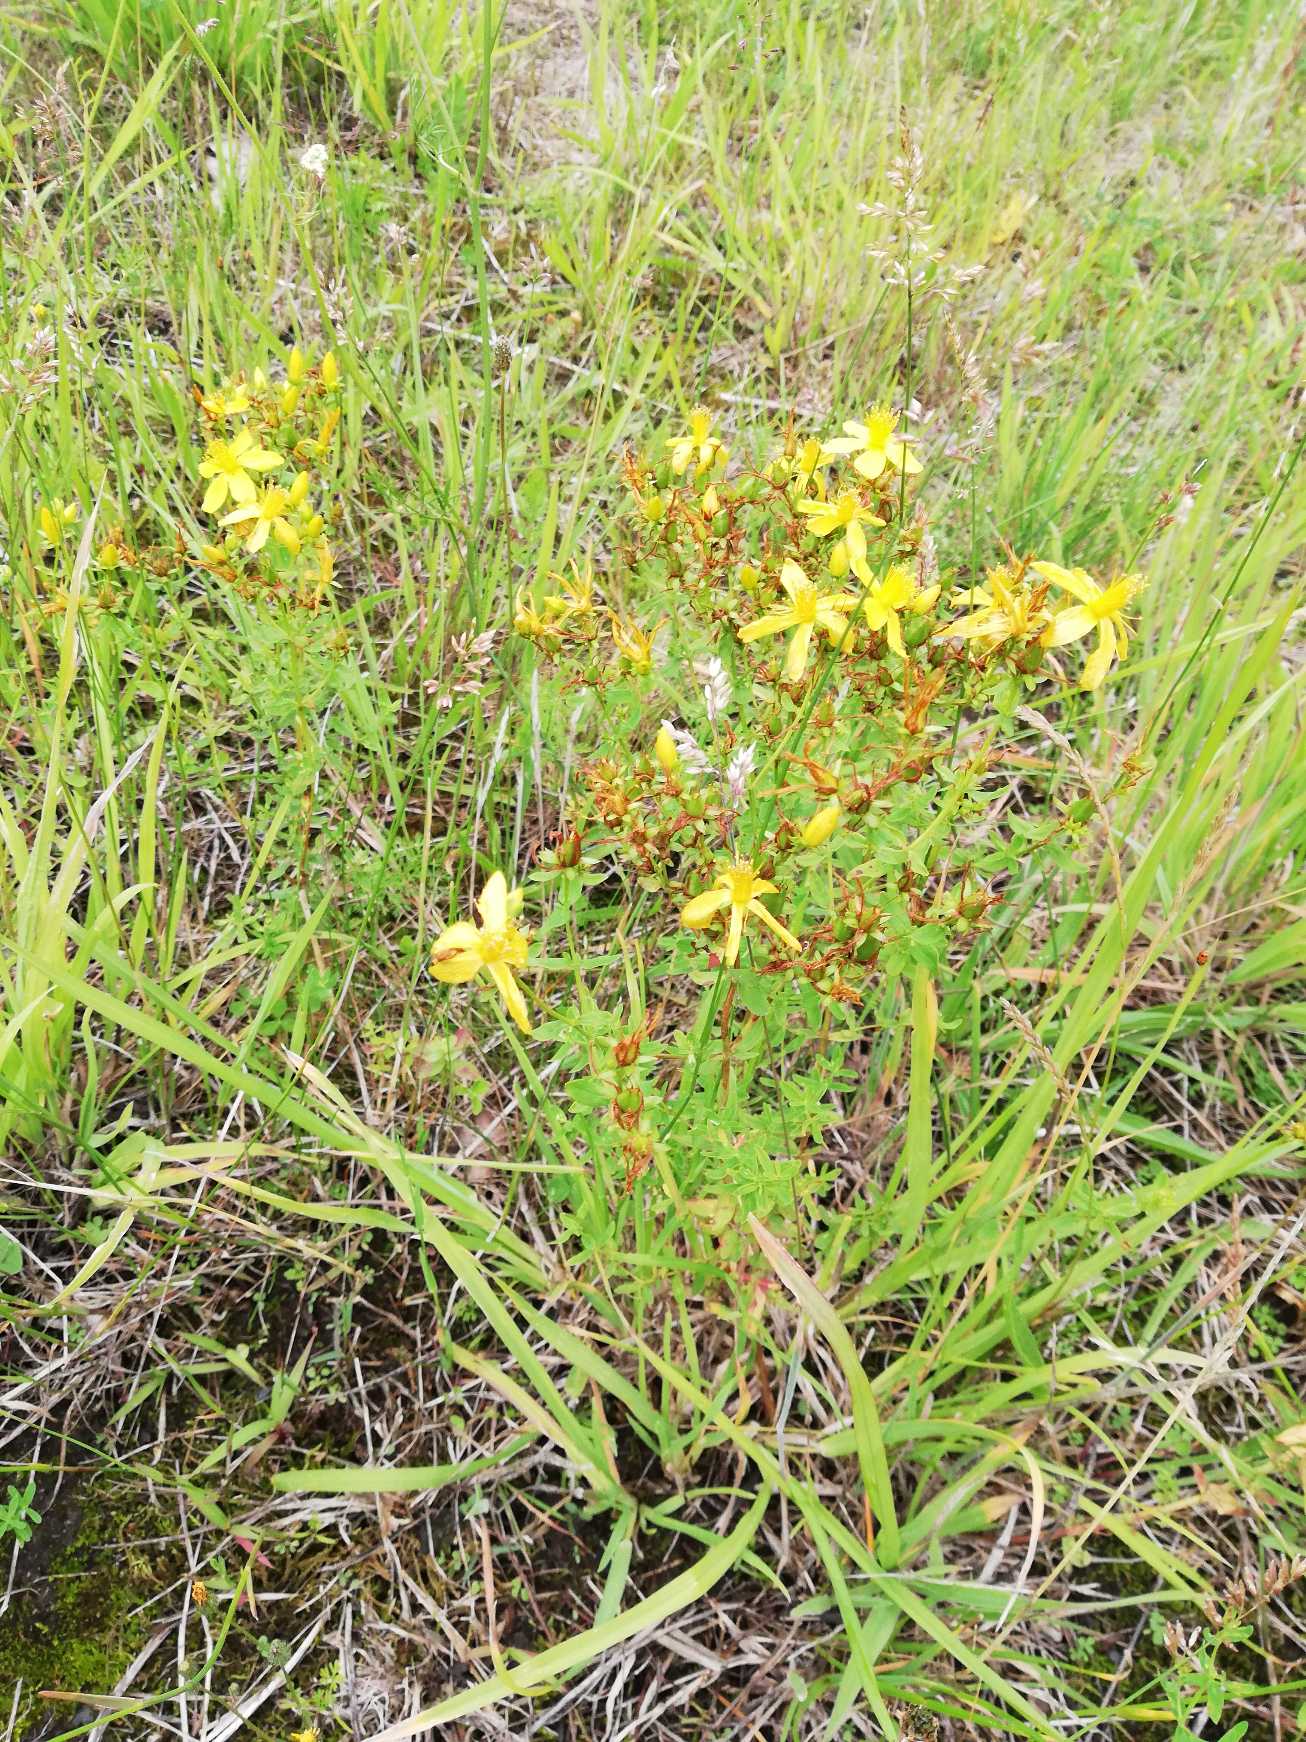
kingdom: Plantae
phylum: Tracheophyta
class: Magnoliopsida
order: Malpighiales
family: Hypericaceae
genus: Hypericum
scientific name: Hypericum perforatum
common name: Prikbladet perikon
